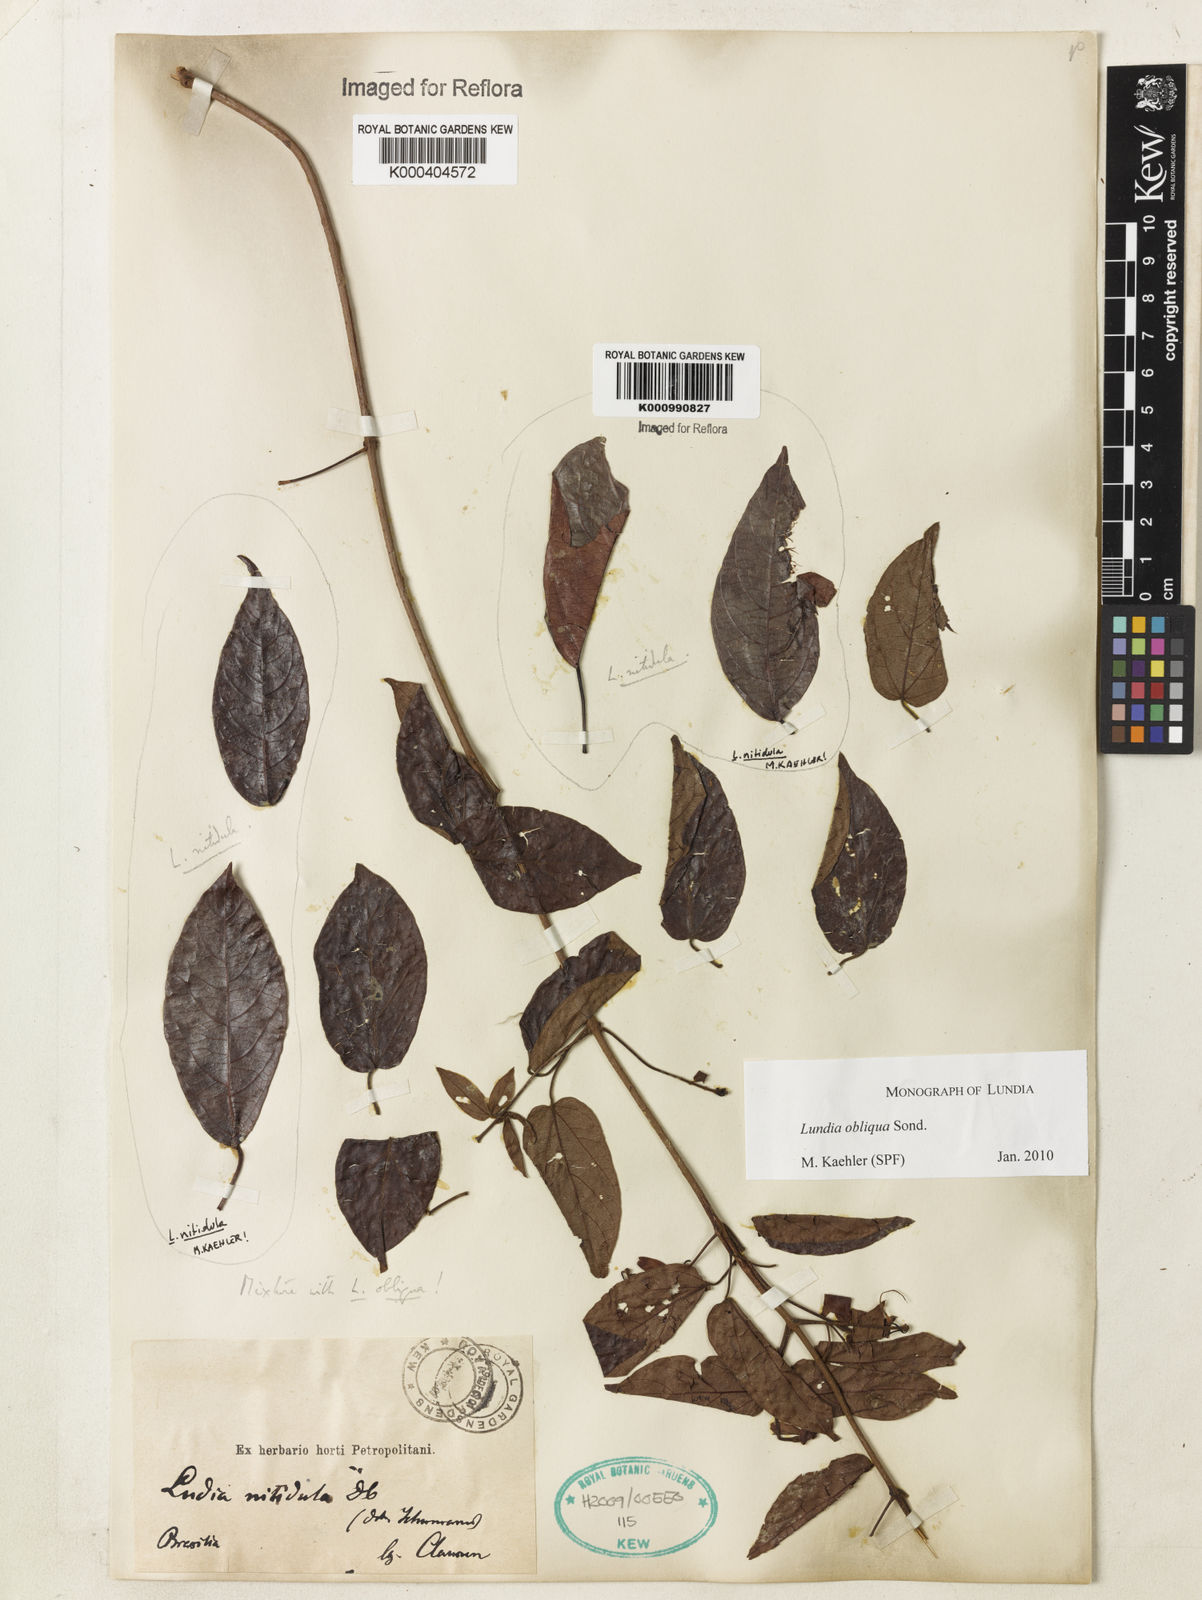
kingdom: Plantae
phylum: Tracheophyta
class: Magnoliopsida
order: Lamiales
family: Bignoniaceae
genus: Lundia
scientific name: Lundia densiflora
